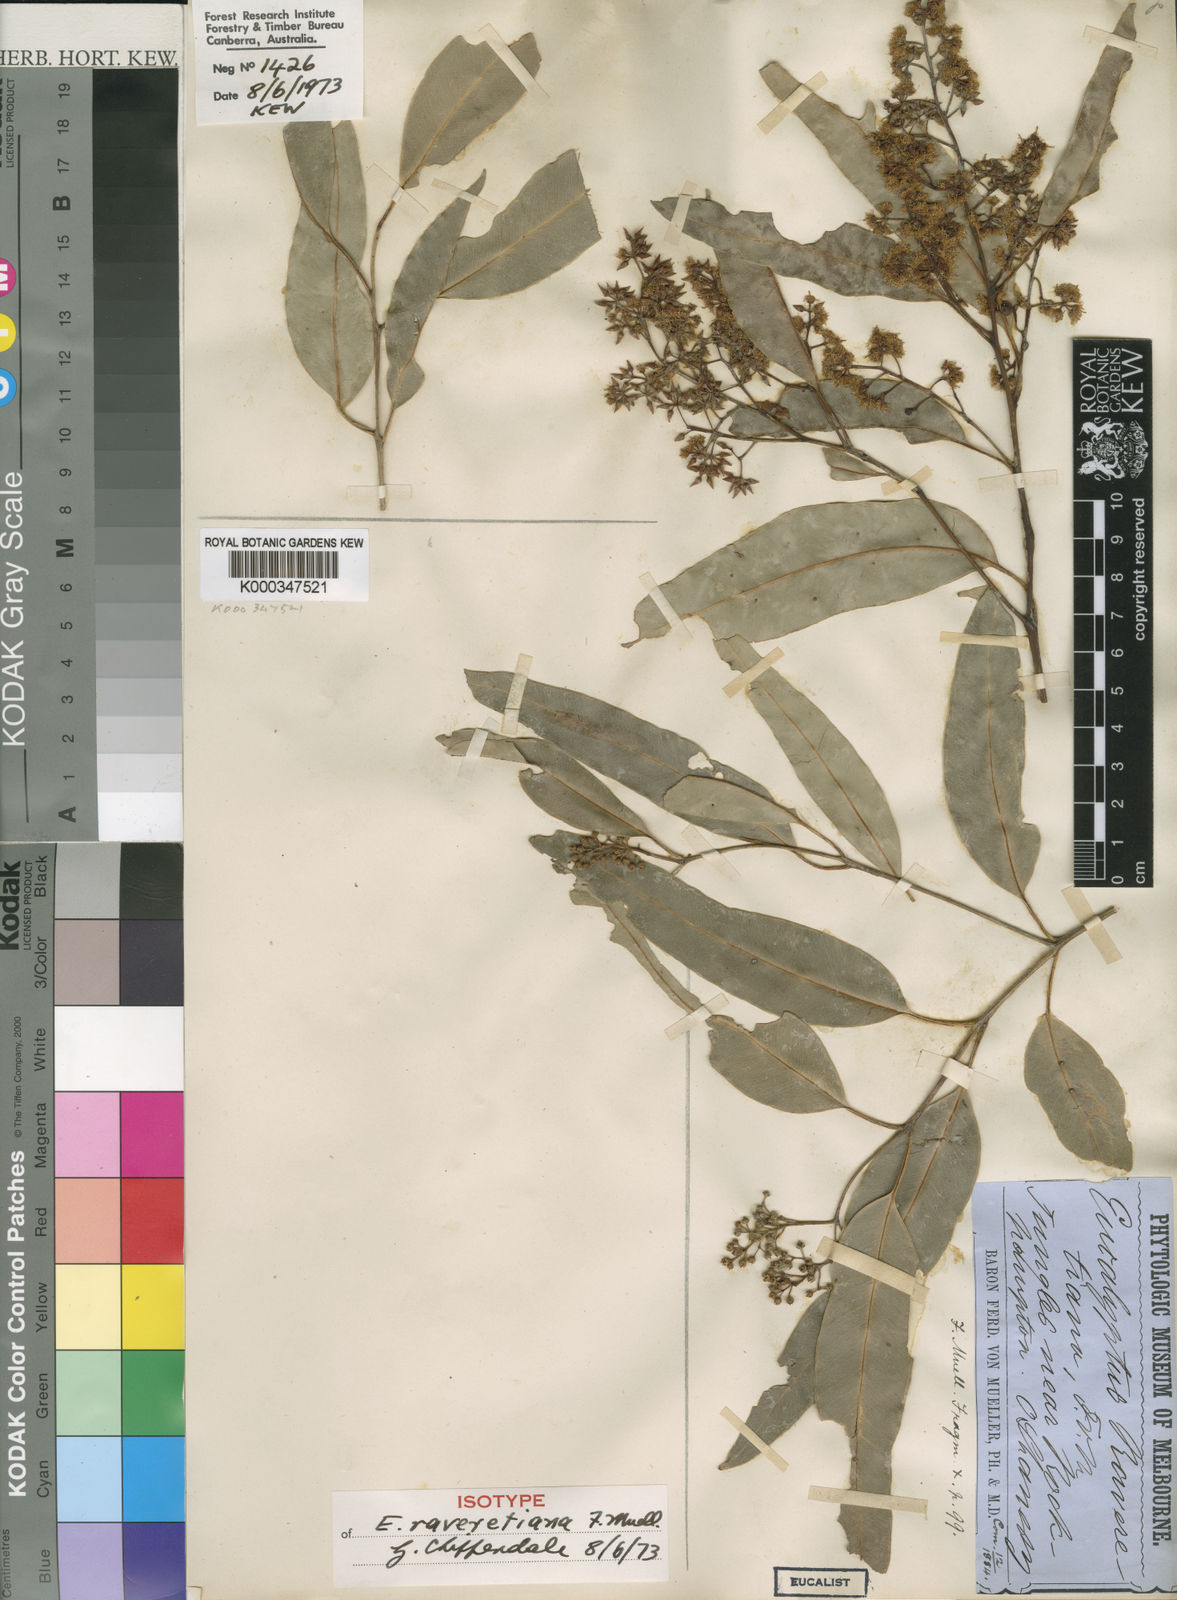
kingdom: Plantae
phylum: Tracheophyta
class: Magnoliopsida
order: Myrtales
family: Myrtaceae
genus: Eucalyptus
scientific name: Eucalyptus raveretiana
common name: Black ironbox
